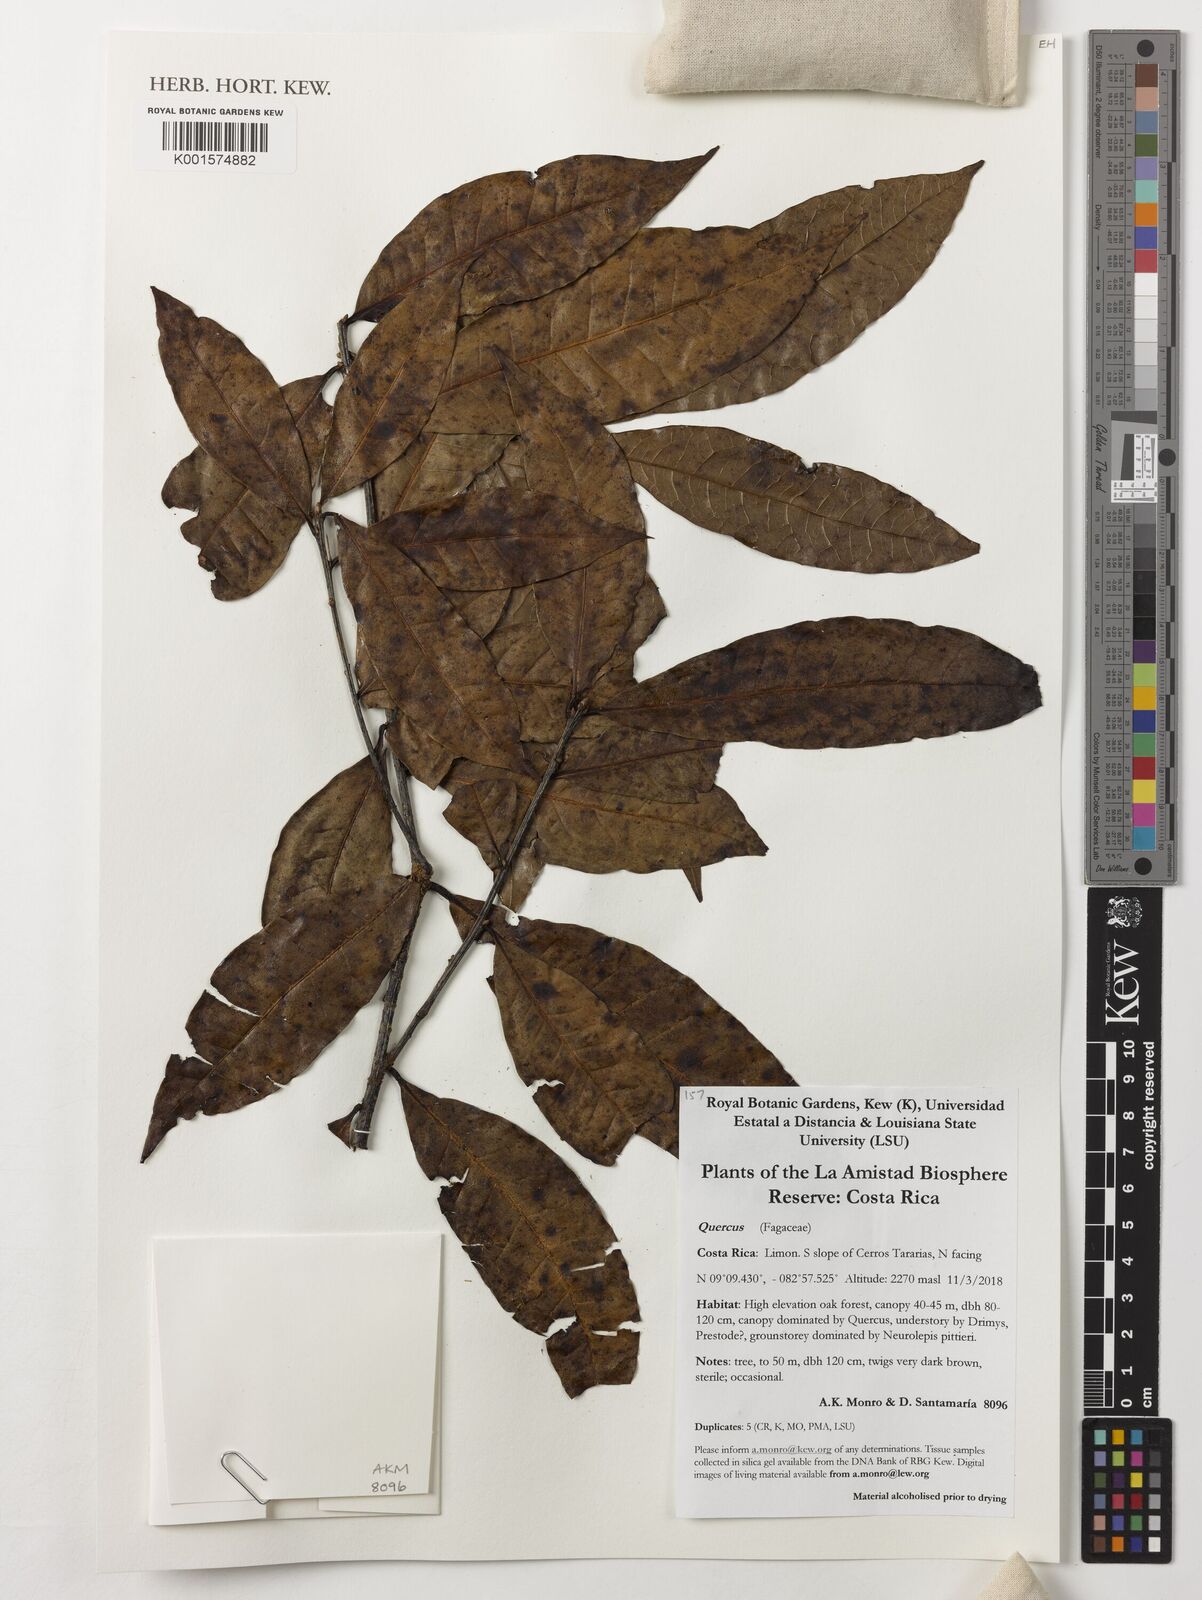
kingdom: Plantae
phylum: Tracheophyta
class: Magnoliopsida
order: Fagales
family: Fagaceae
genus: Quercus
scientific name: Quercus
